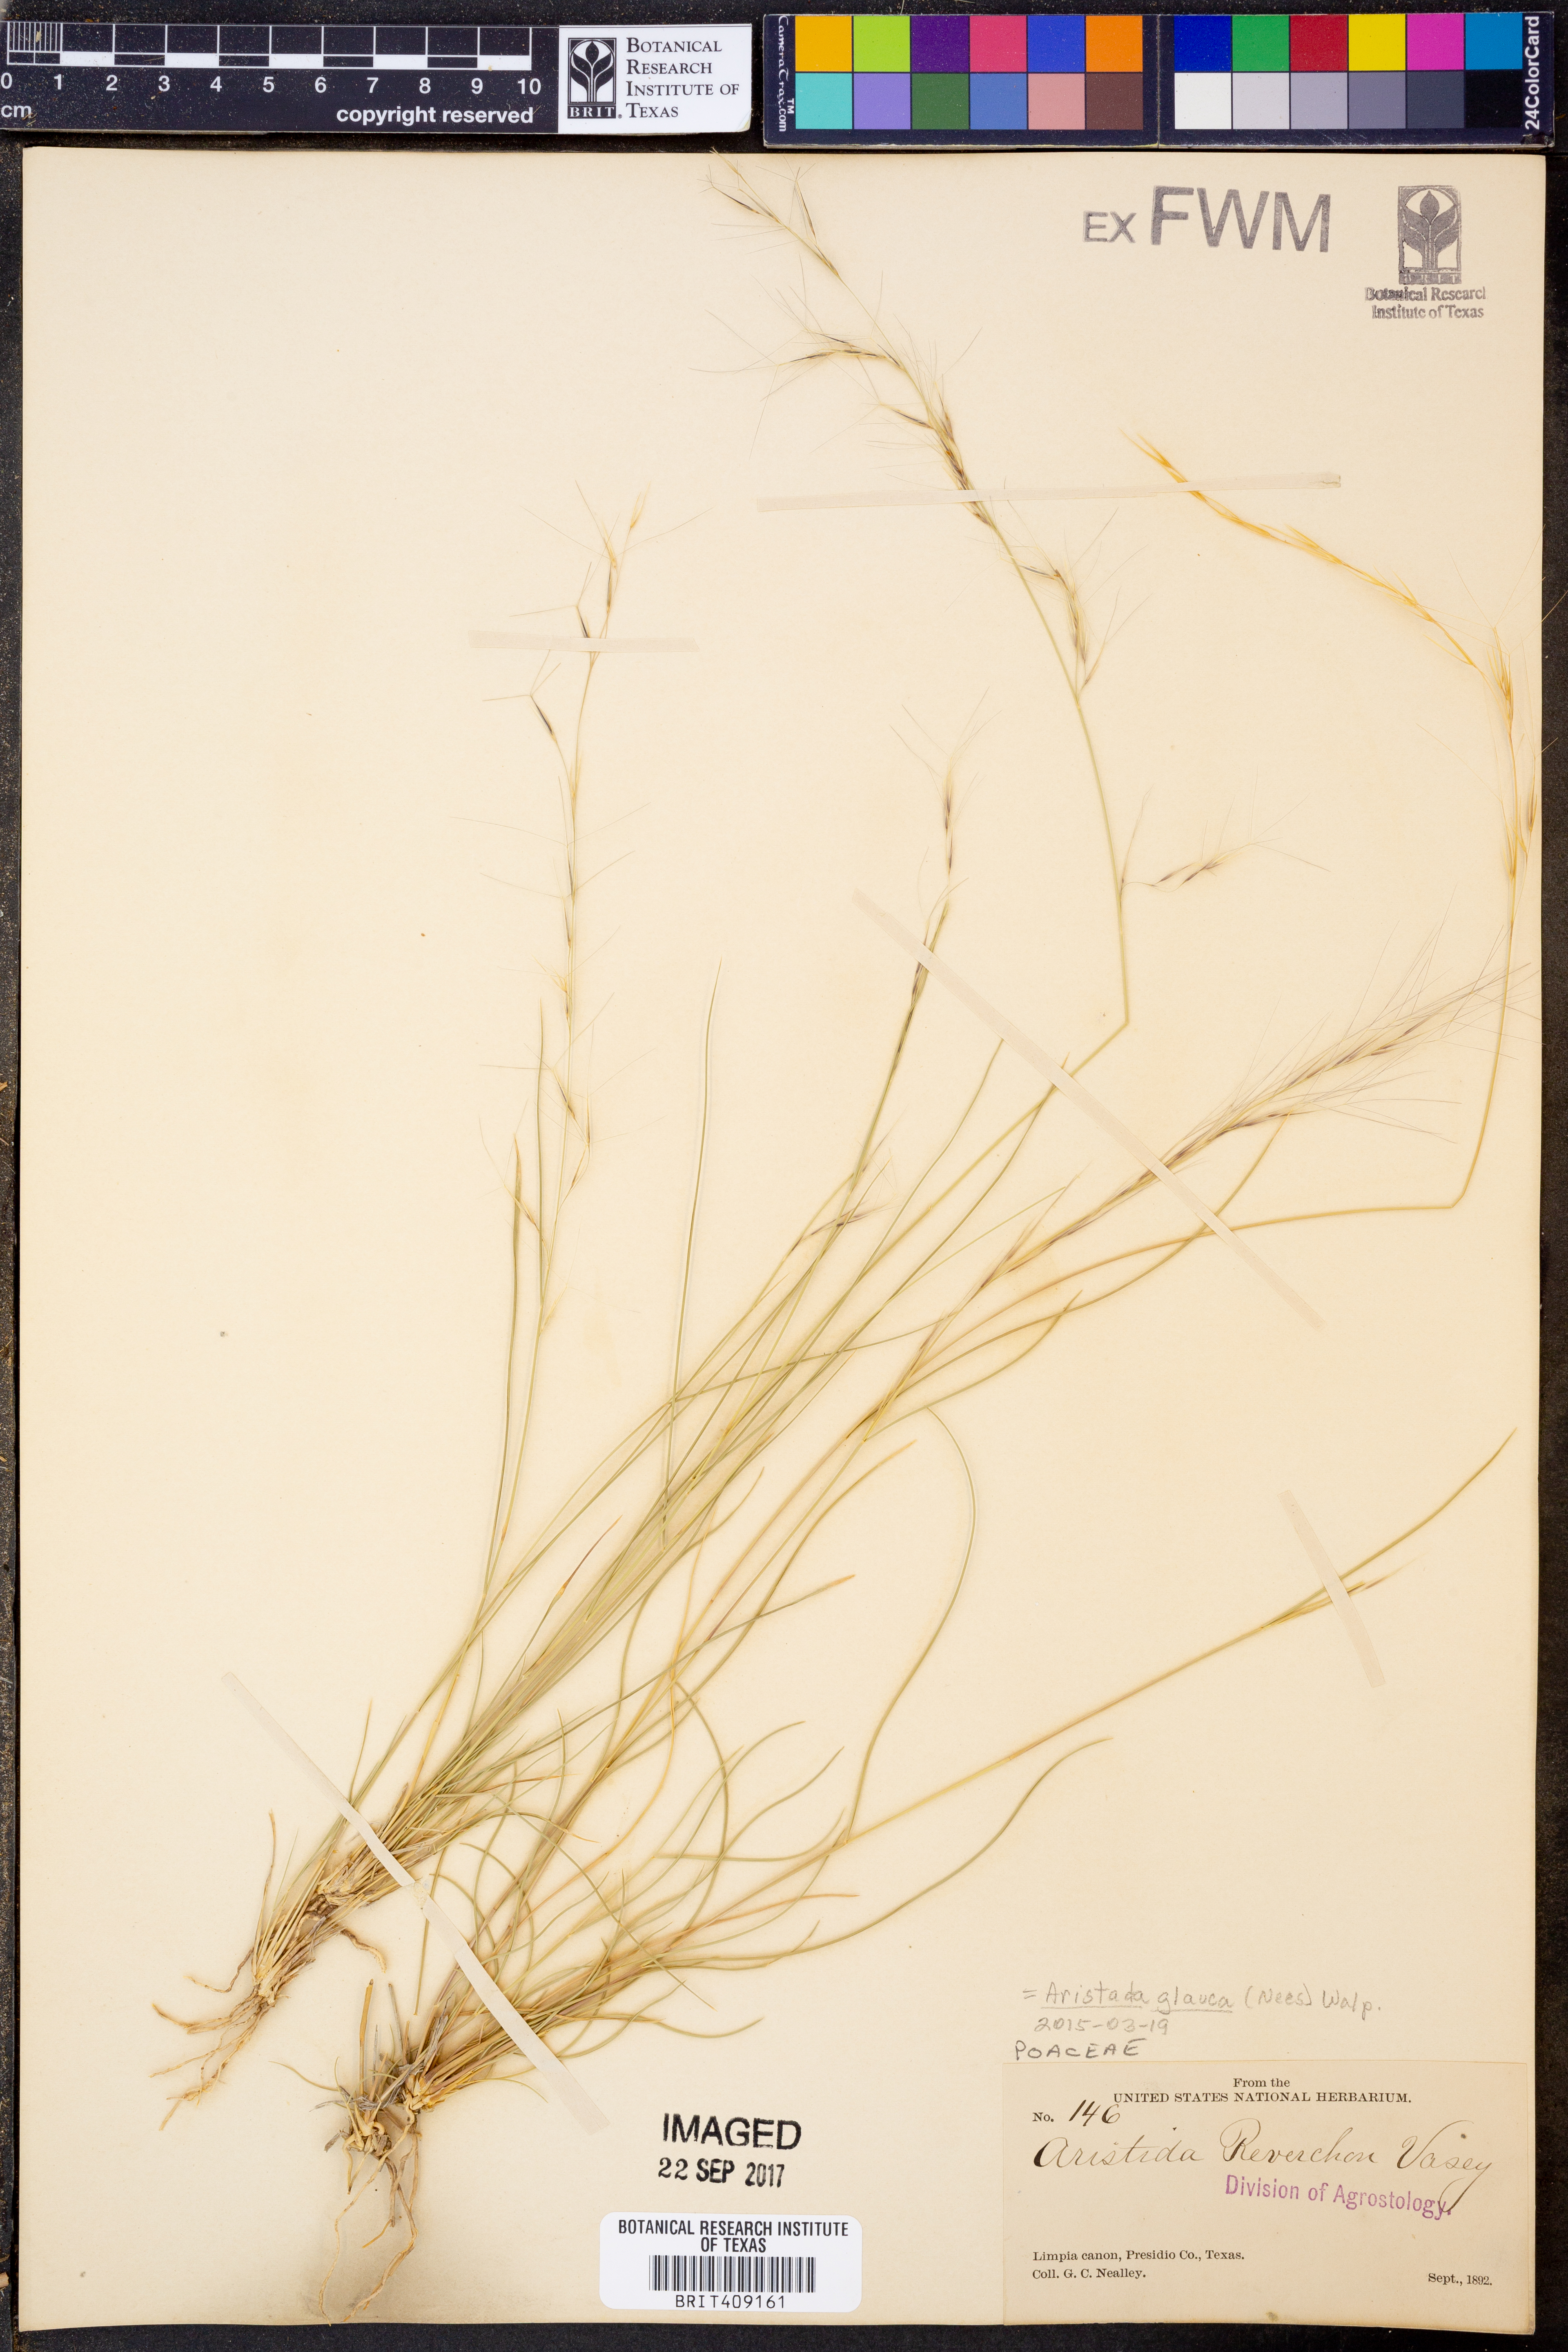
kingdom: Plantae
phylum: Tracheophyta
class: Liliopsida
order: Poales
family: Poaceae
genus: Aristida
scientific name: Aristida glauca
